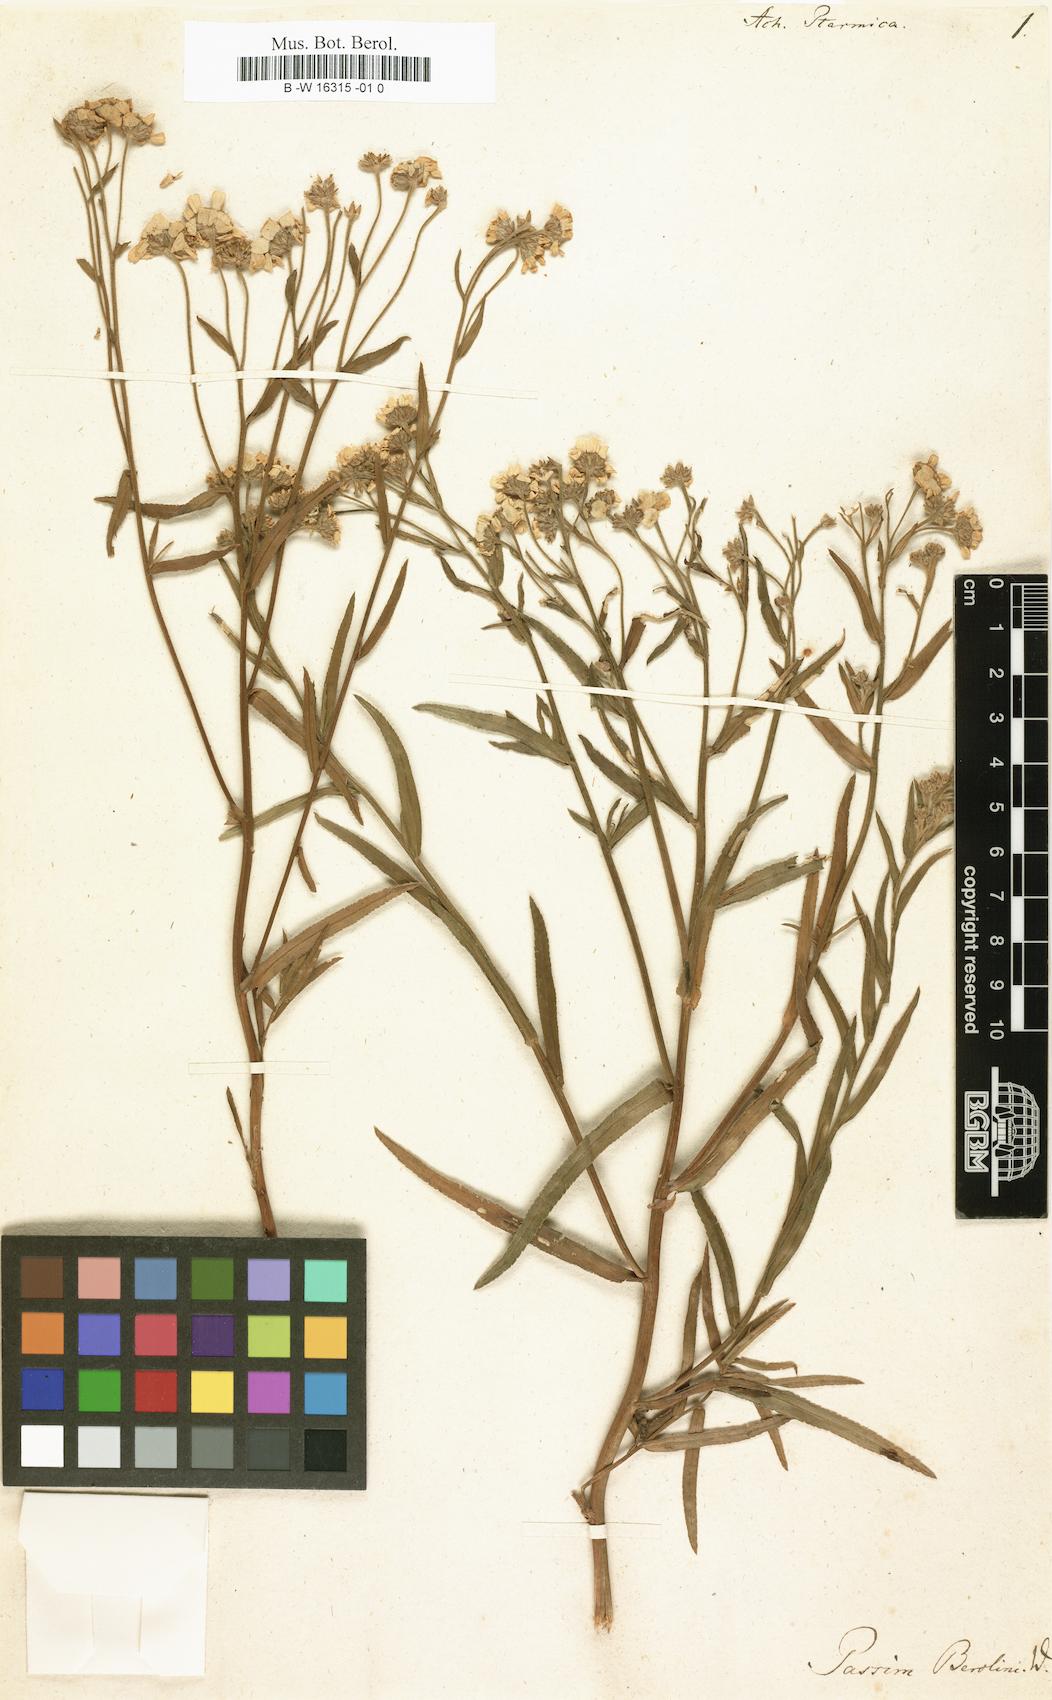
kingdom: Plantae
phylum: Tracheophyta
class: Magnoliopsida
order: Asterales
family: Asteraceae
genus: Achillea
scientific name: Achillea ptarmica
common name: Sneezeweed
